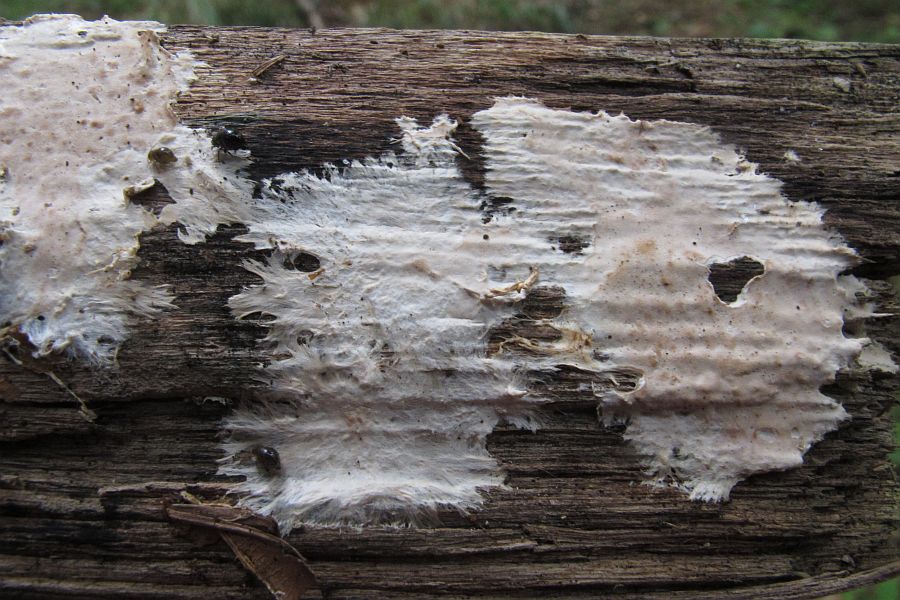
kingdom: Fungi
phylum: Basidiomycota
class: Agaricomycetes
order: Polyporales
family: Phanerochaetaceae
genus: Phanerochaete
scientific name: Phanerochaete velutina
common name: dunet randtråd
